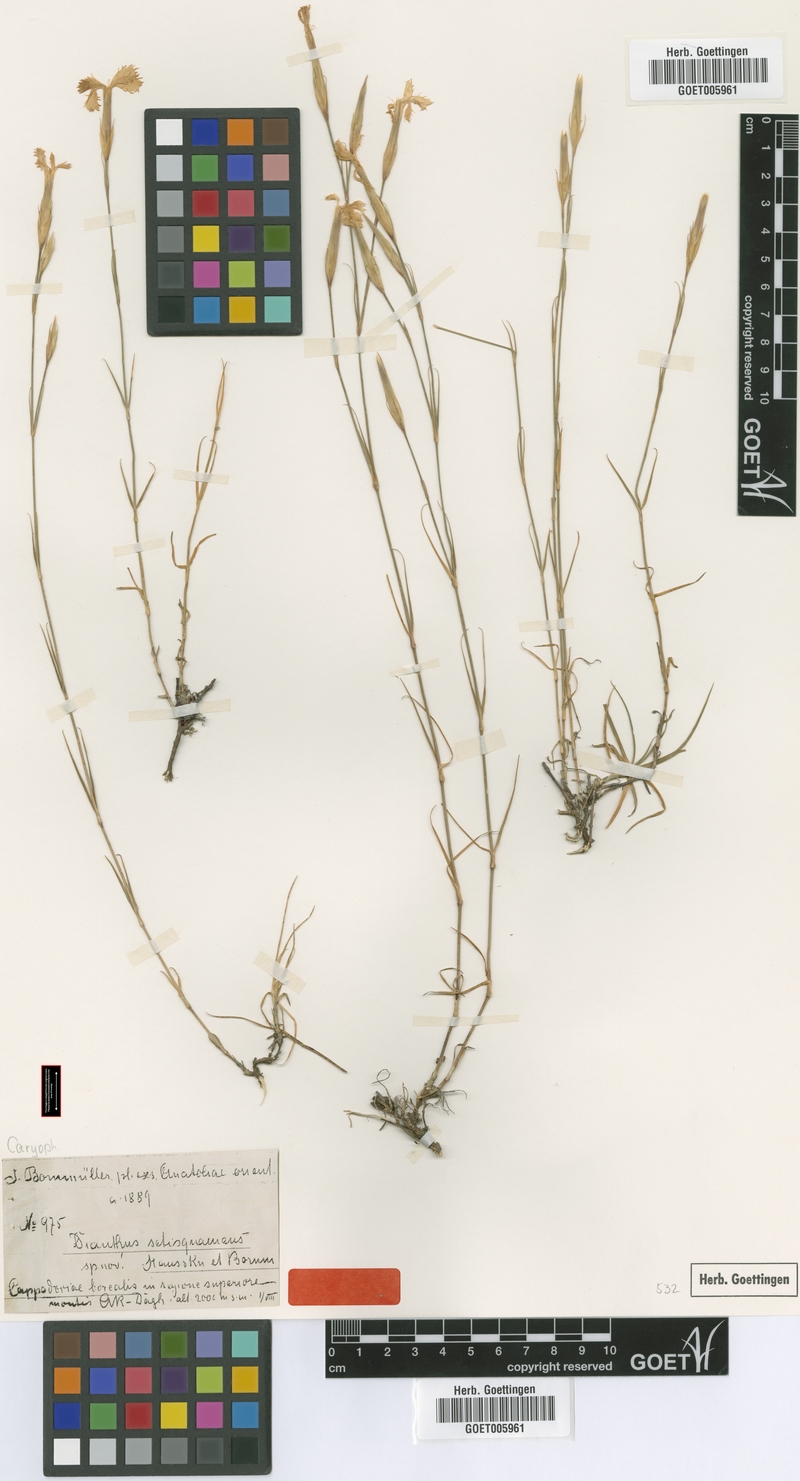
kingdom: Plantae
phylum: Tracheophyta
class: Magnoliopsida
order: Caryophyllales
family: Caryophyllaceae
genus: Dianthus
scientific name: Dianthus setisquameus
